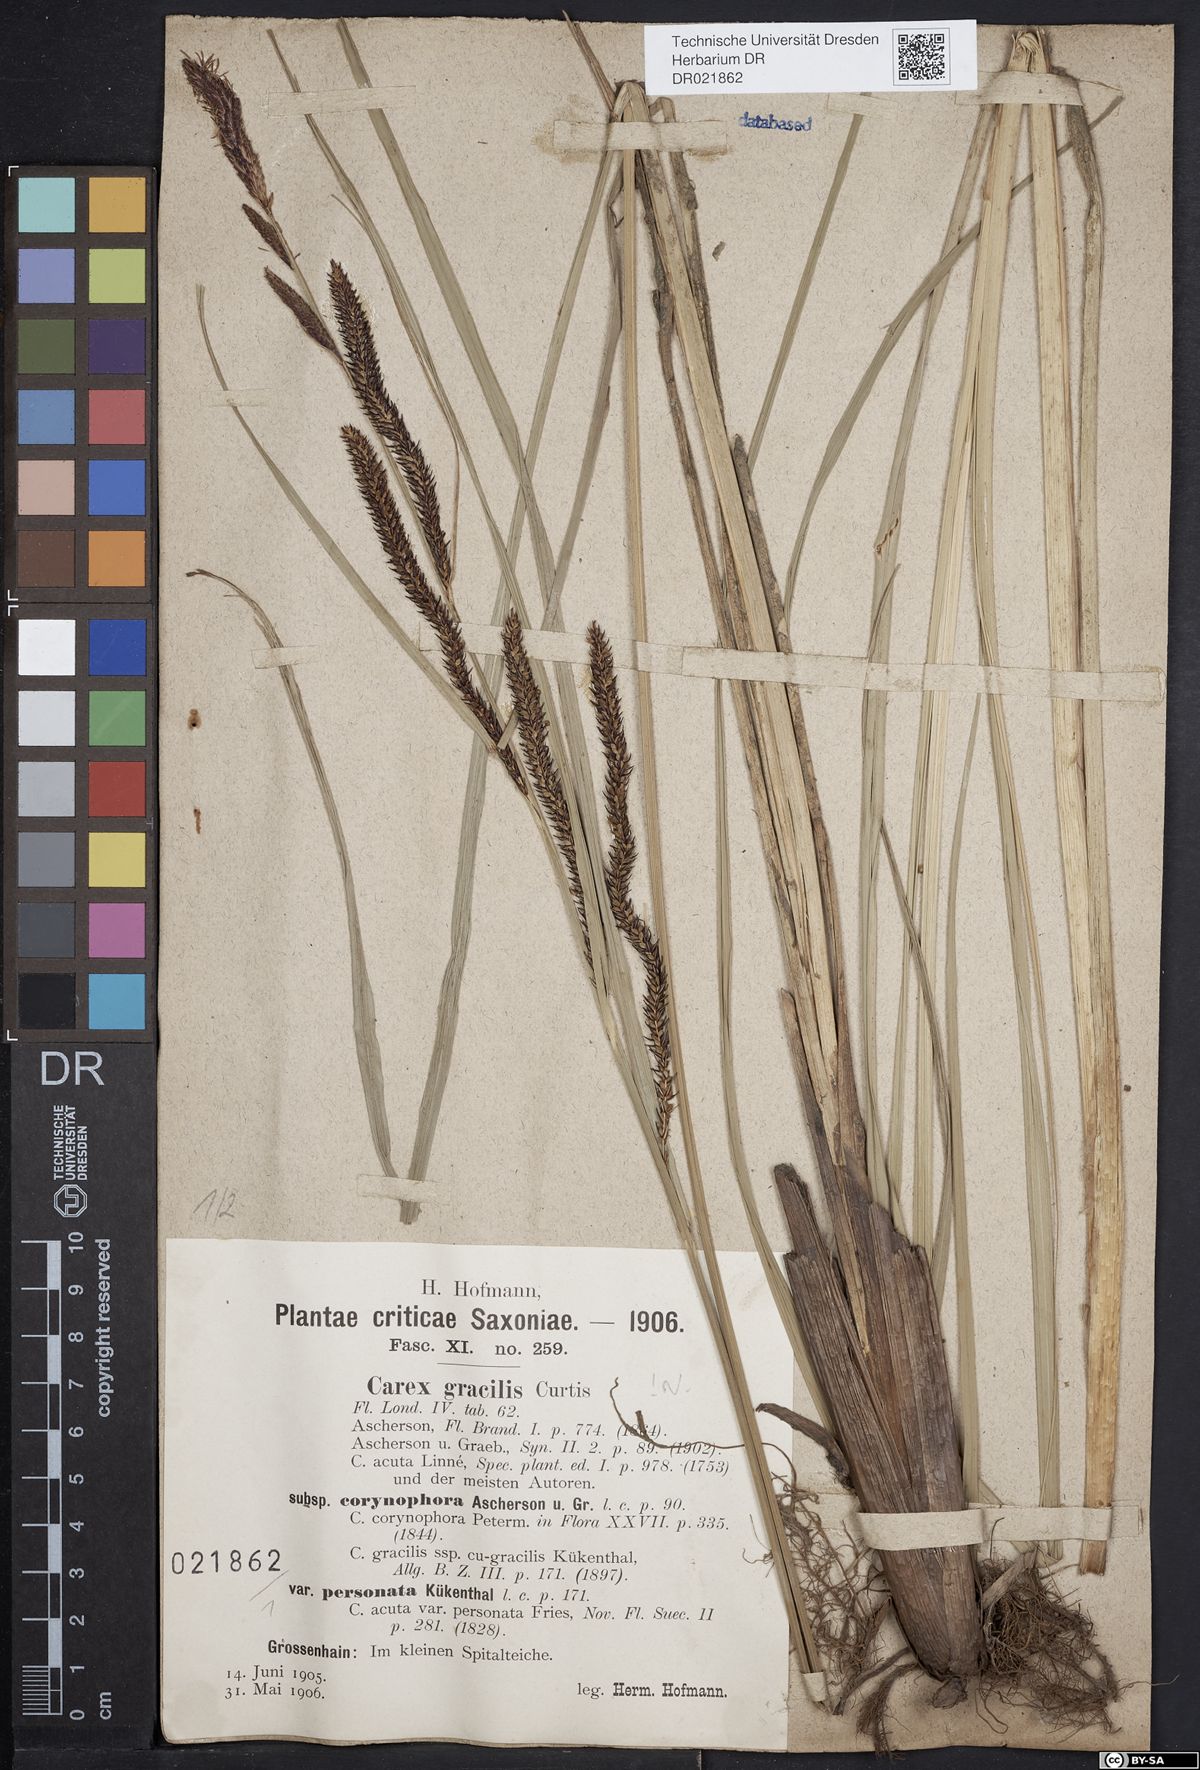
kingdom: Plantae
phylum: Tracheophyta
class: Liliopsida
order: Poales
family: Cyperaceae
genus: Carex
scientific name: Carex acuta
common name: Slender tufted-sedge
